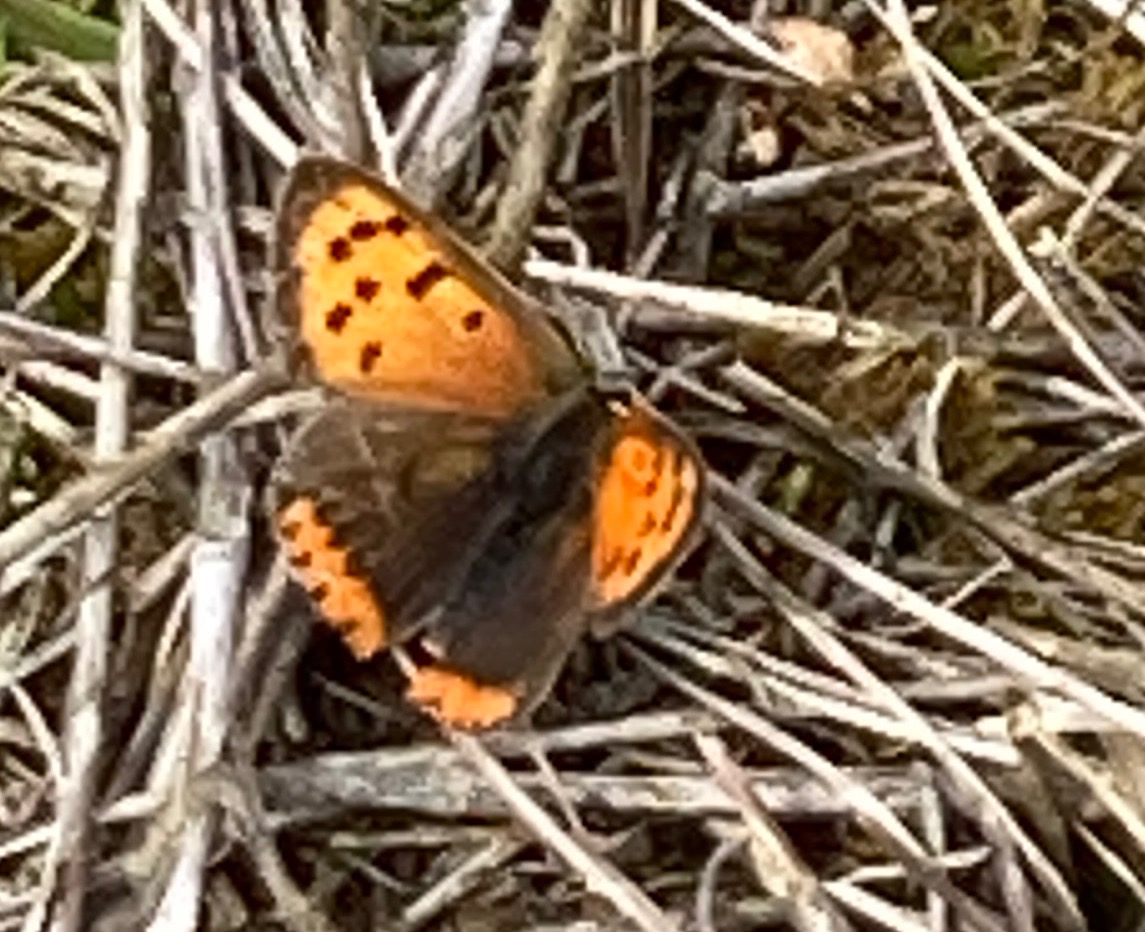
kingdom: Animalia
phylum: Arthropoda
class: Insecta
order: Lepidoptera
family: Lycaenidae
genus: Lycaena
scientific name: Lycaena phlaeas
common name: Lille ildfugl
